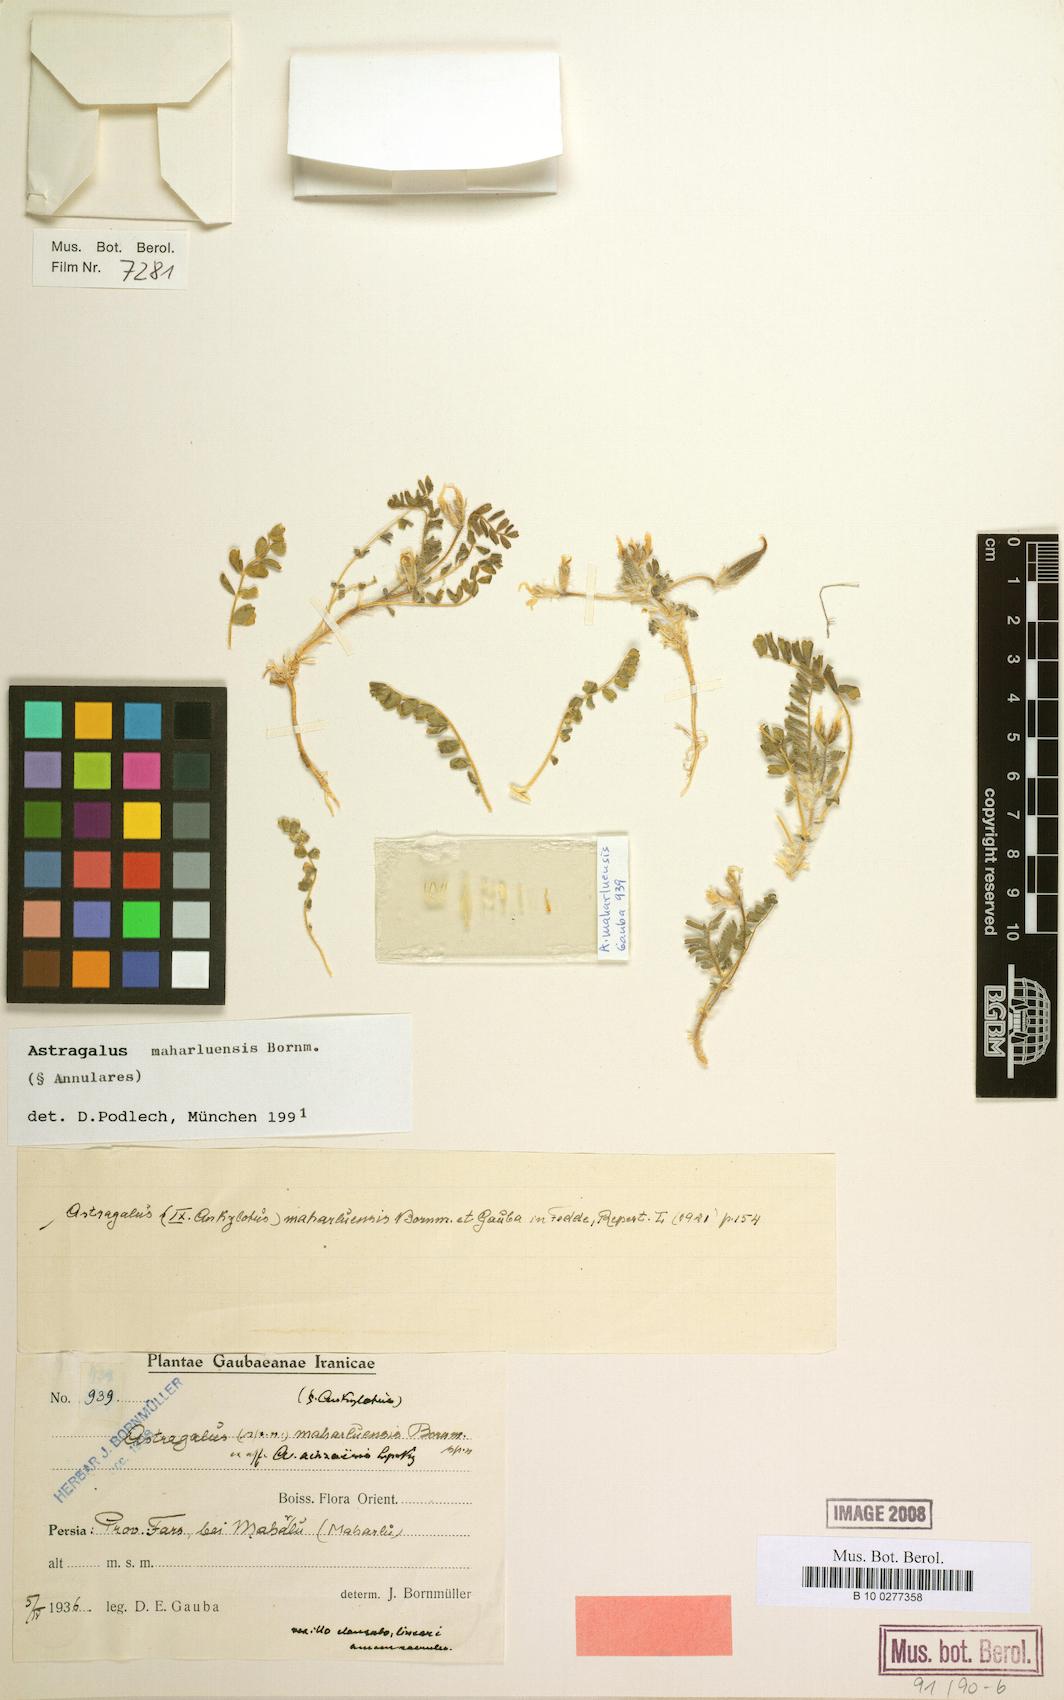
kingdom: Plantae
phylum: Tracheophyta
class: Magnoliopsida
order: Fabales
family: Fabaceae
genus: Astragalus
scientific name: Astragalus camptoceras
